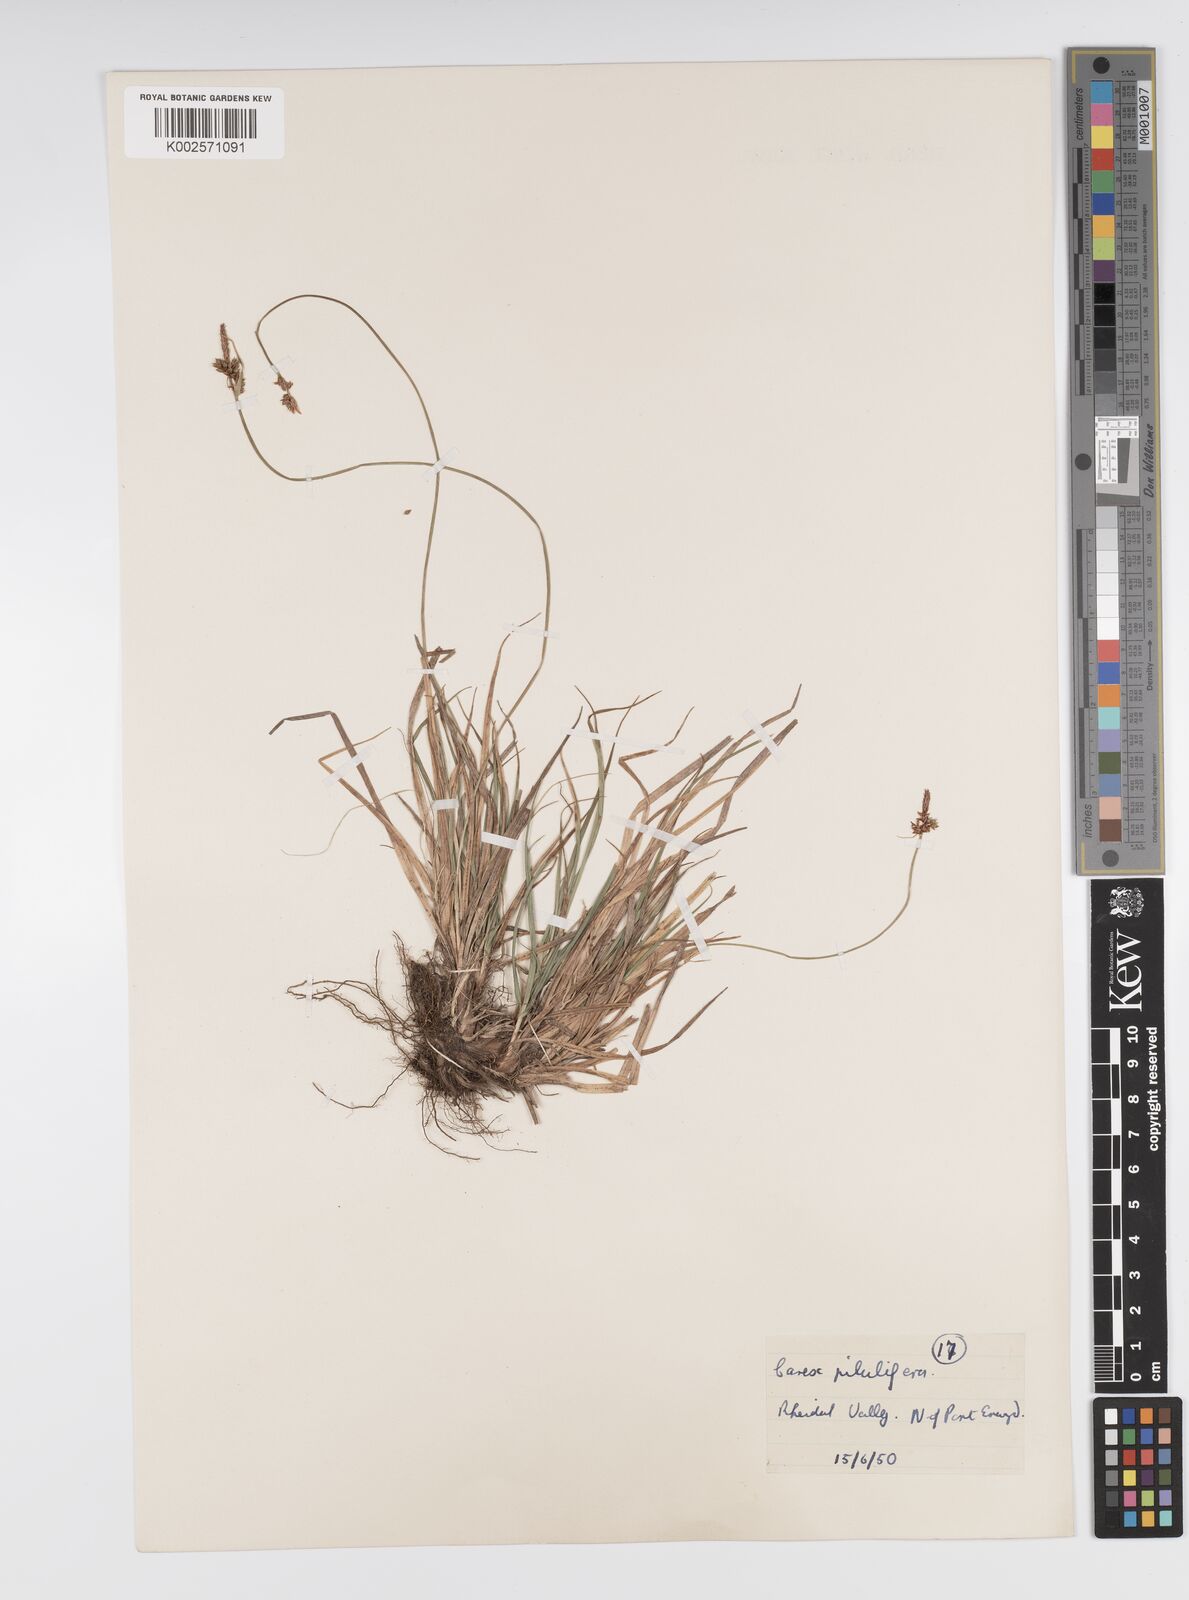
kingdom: Plantae
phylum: Tracheophyta
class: Liliopsida
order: Poales
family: Cyperaceae
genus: Carex
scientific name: Carex pilulifera
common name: Pill sedge
